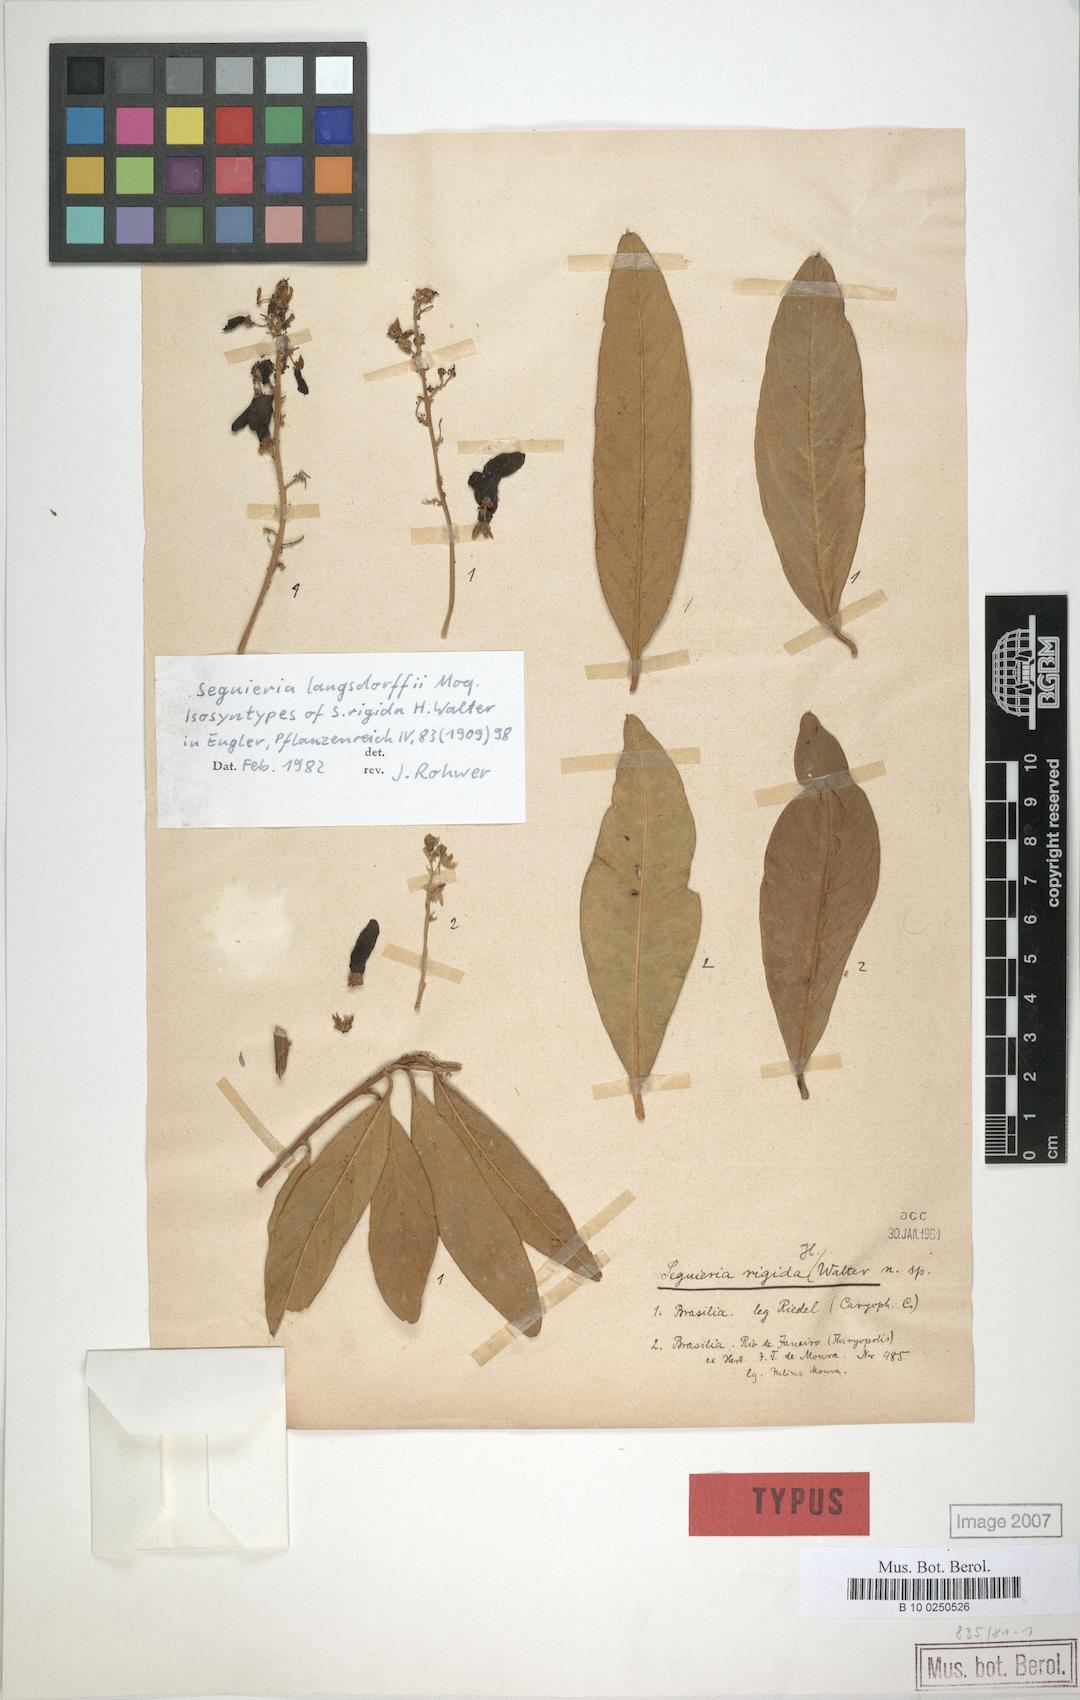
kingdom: Plantae
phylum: Tracheophyta
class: Magnoliopsida
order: Caryophyllales
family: Phytolaccaceae
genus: Seguieria
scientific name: Seguieria langsdorffii
